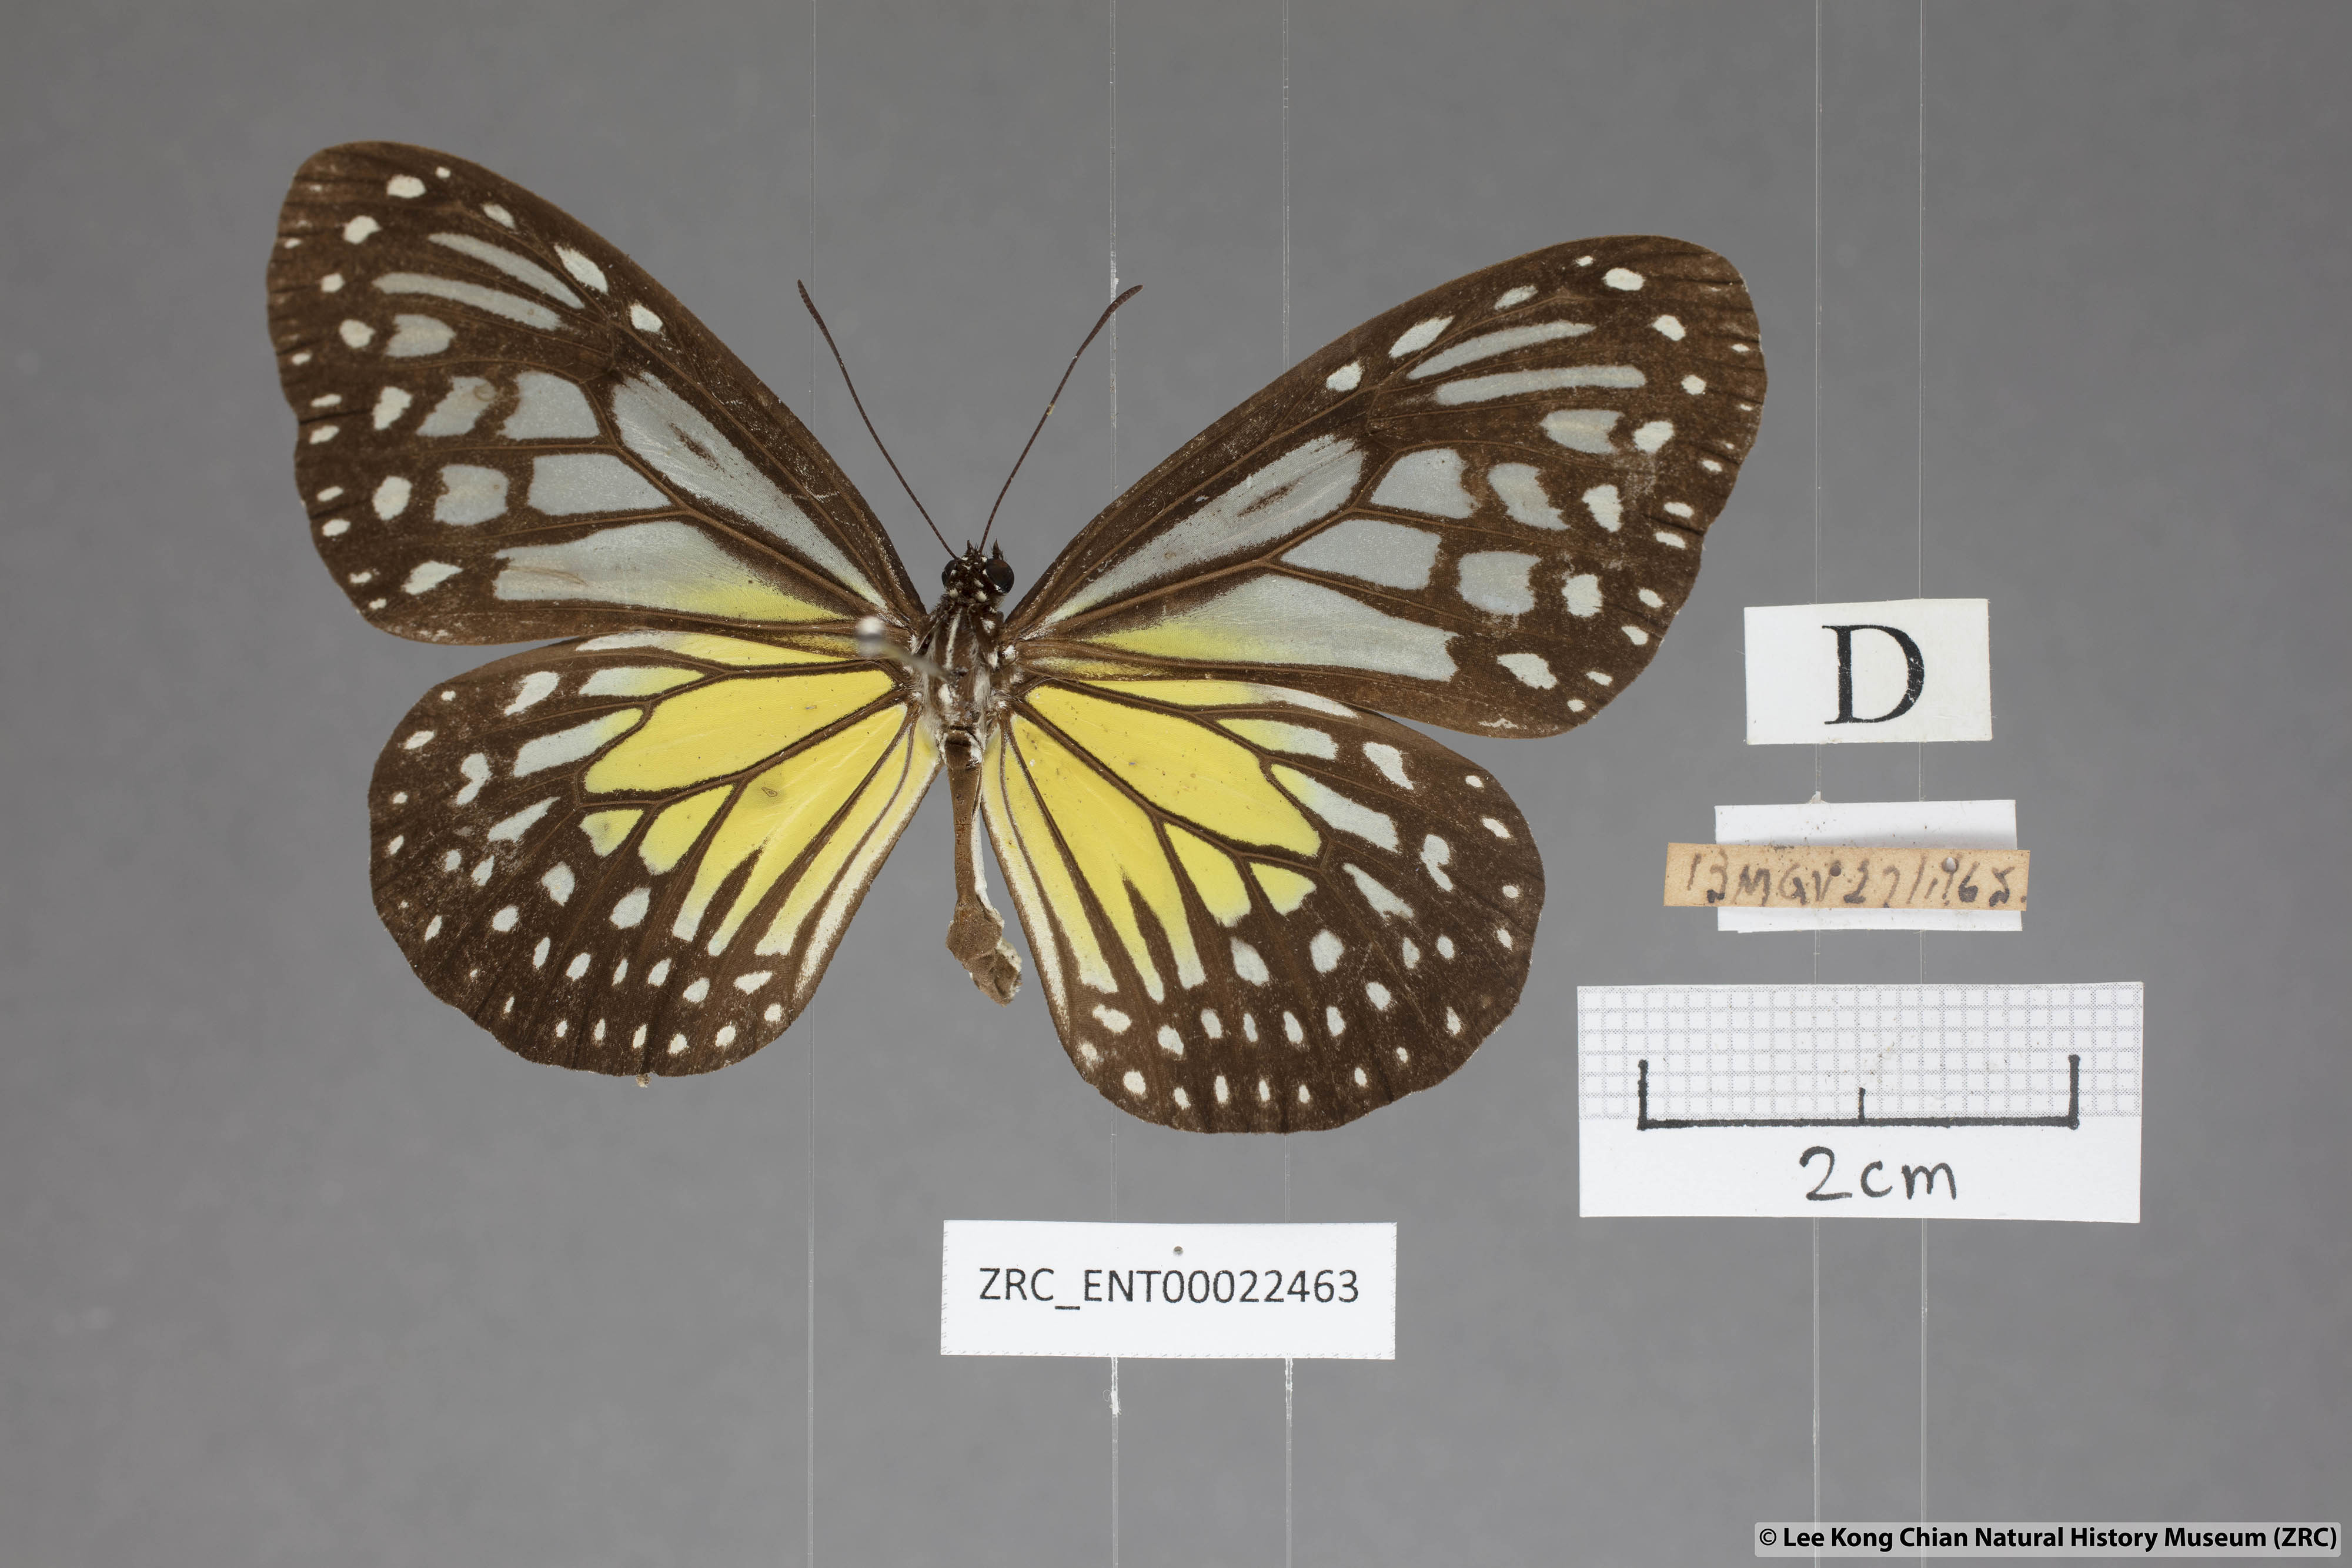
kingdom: Animalia
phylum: Arthropoda
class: Insecta
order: Lepidoptera
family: Nymphalidae
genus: Parantica
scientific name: Parantica aspasia
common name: Yellow glassy tiger
